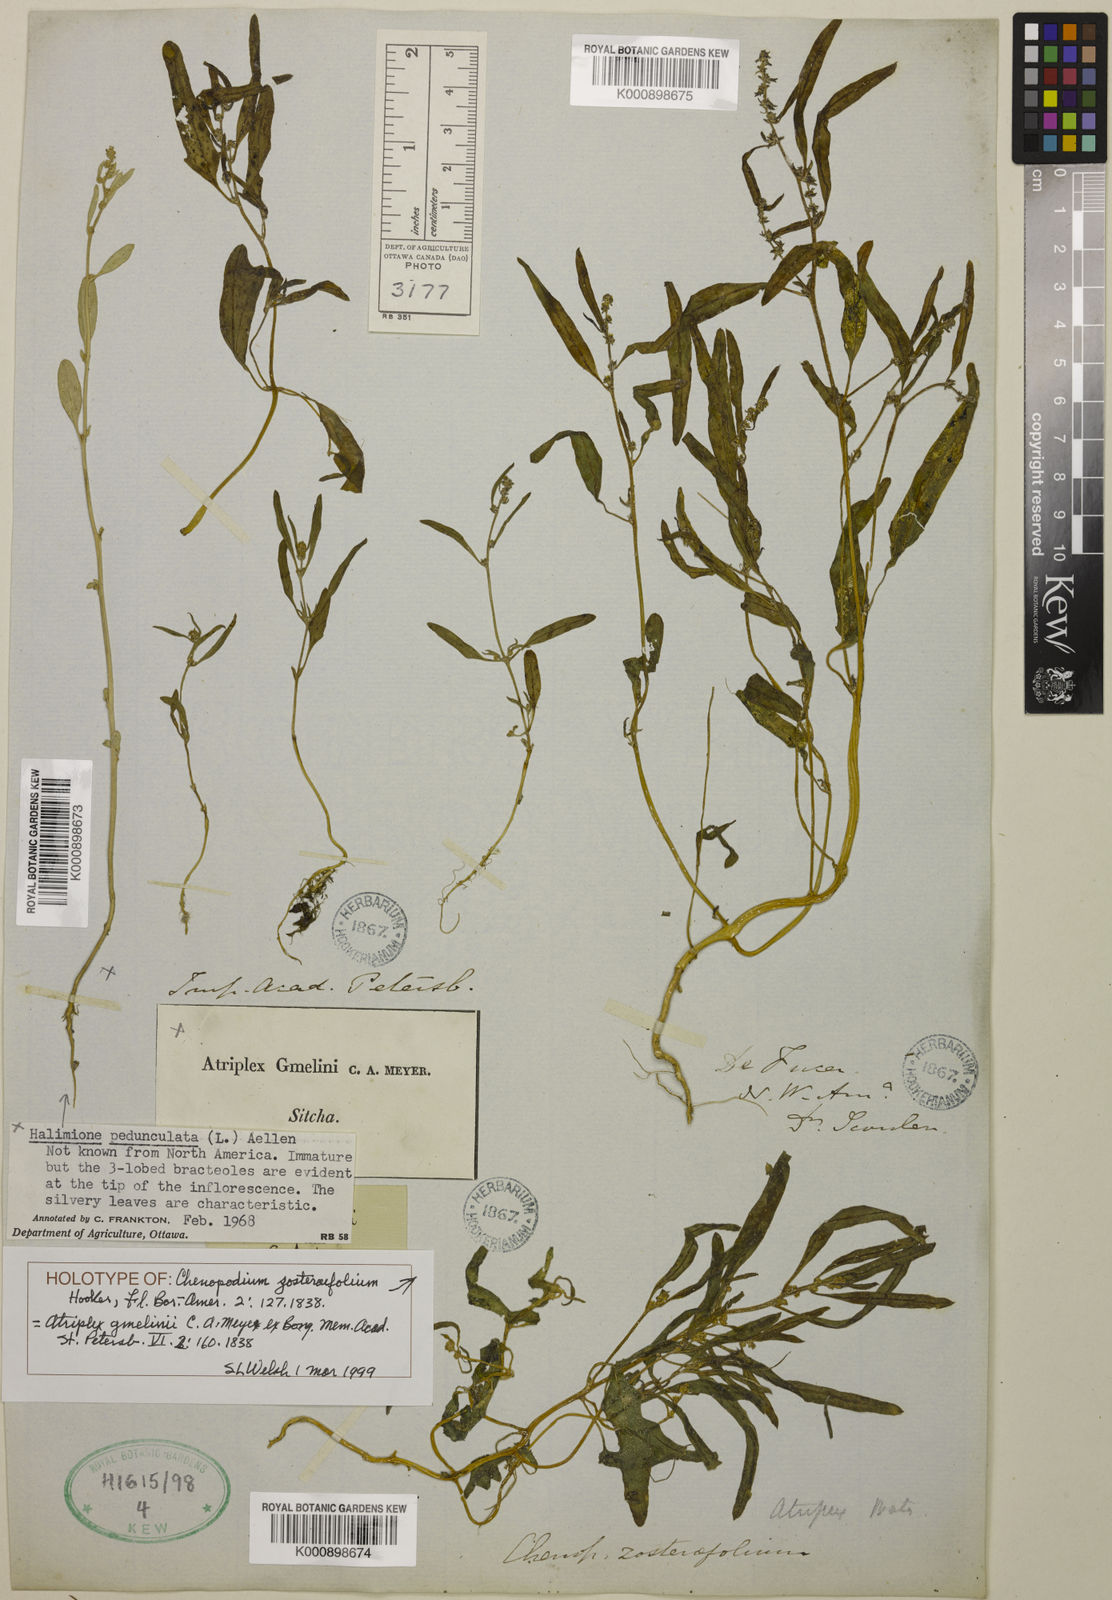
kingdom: Plantae
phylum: Tracheophyta
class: Magnoliopsida
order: Caryophyllales
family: Amaranthaceae
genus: Atriplex
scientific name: Atriplex gmelinii
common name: Gmelin's orach
